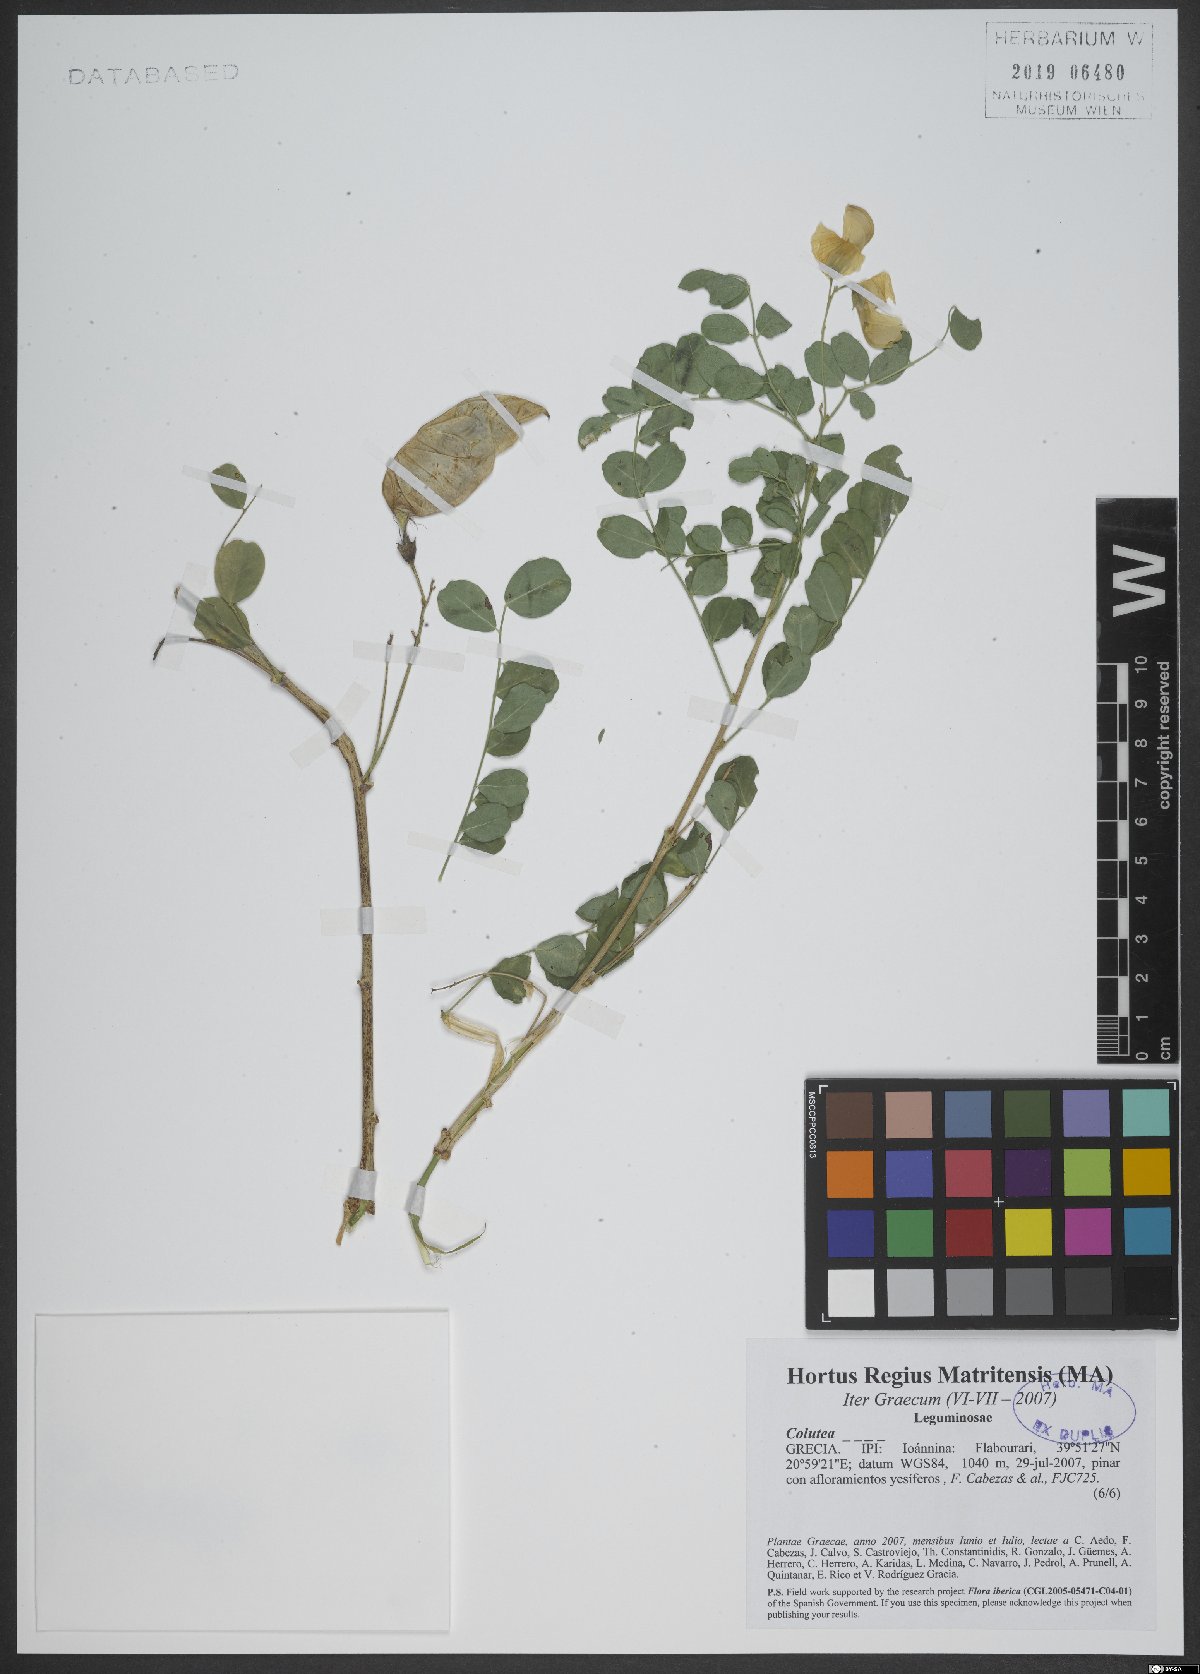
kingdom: Plantae
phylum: Tracheophyta
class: Magnoliopsida
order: Fabales
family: Fabaceae
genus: Colutea
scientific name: Colutea
